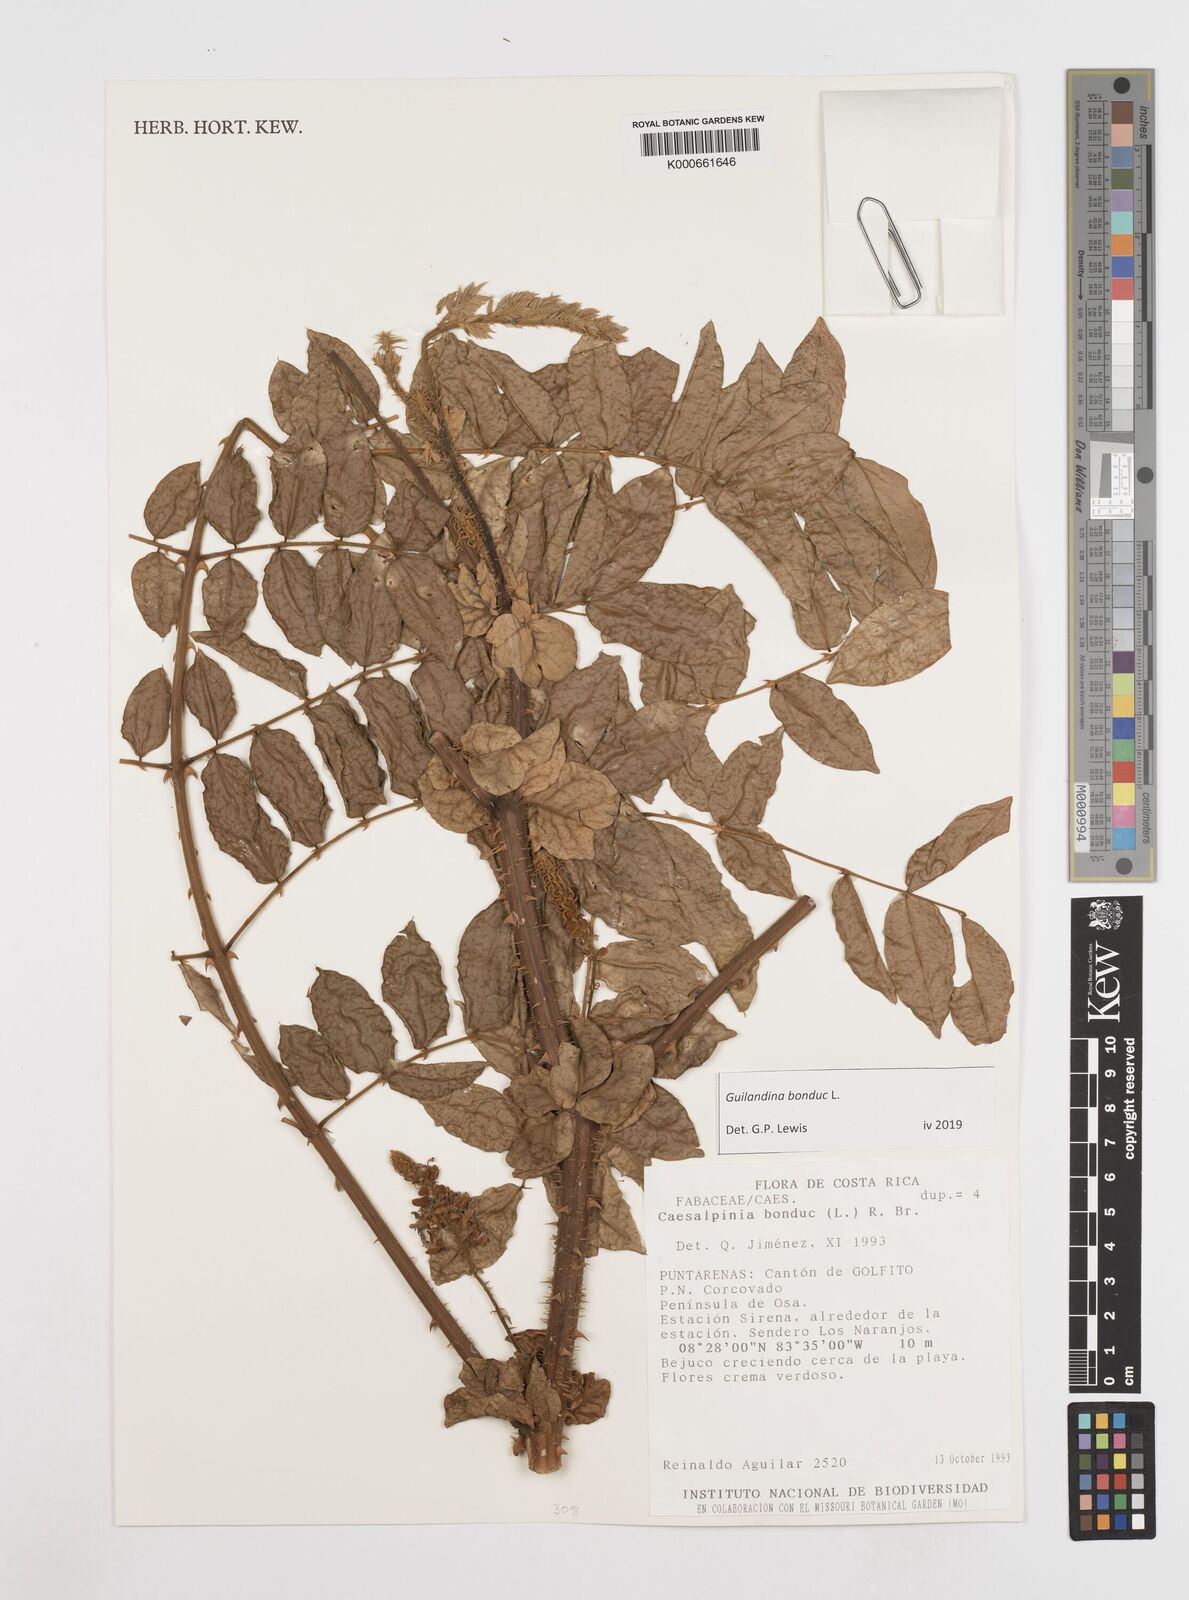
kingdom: Plantae
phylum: Tracheophyta
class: Magnoliopsida
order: Fabales
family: Fabaceae
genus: Guilandina
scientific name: Guilandina bonduc
